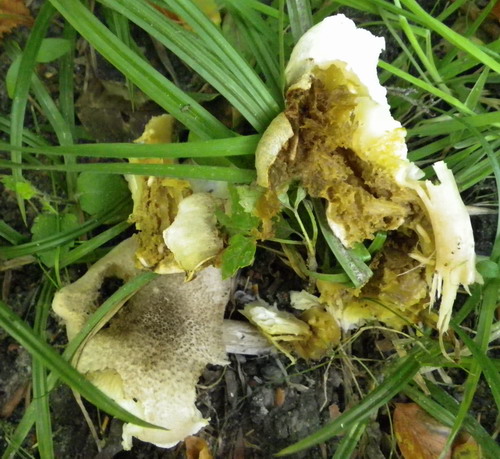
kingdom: Fungi
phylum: Basidiomycota
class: Agaricomycetes
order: Agaricales
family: Tricholomataceae
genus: Tricholoma
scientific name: Tricholoma scalpturatum
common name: gulplettet ridderhat
